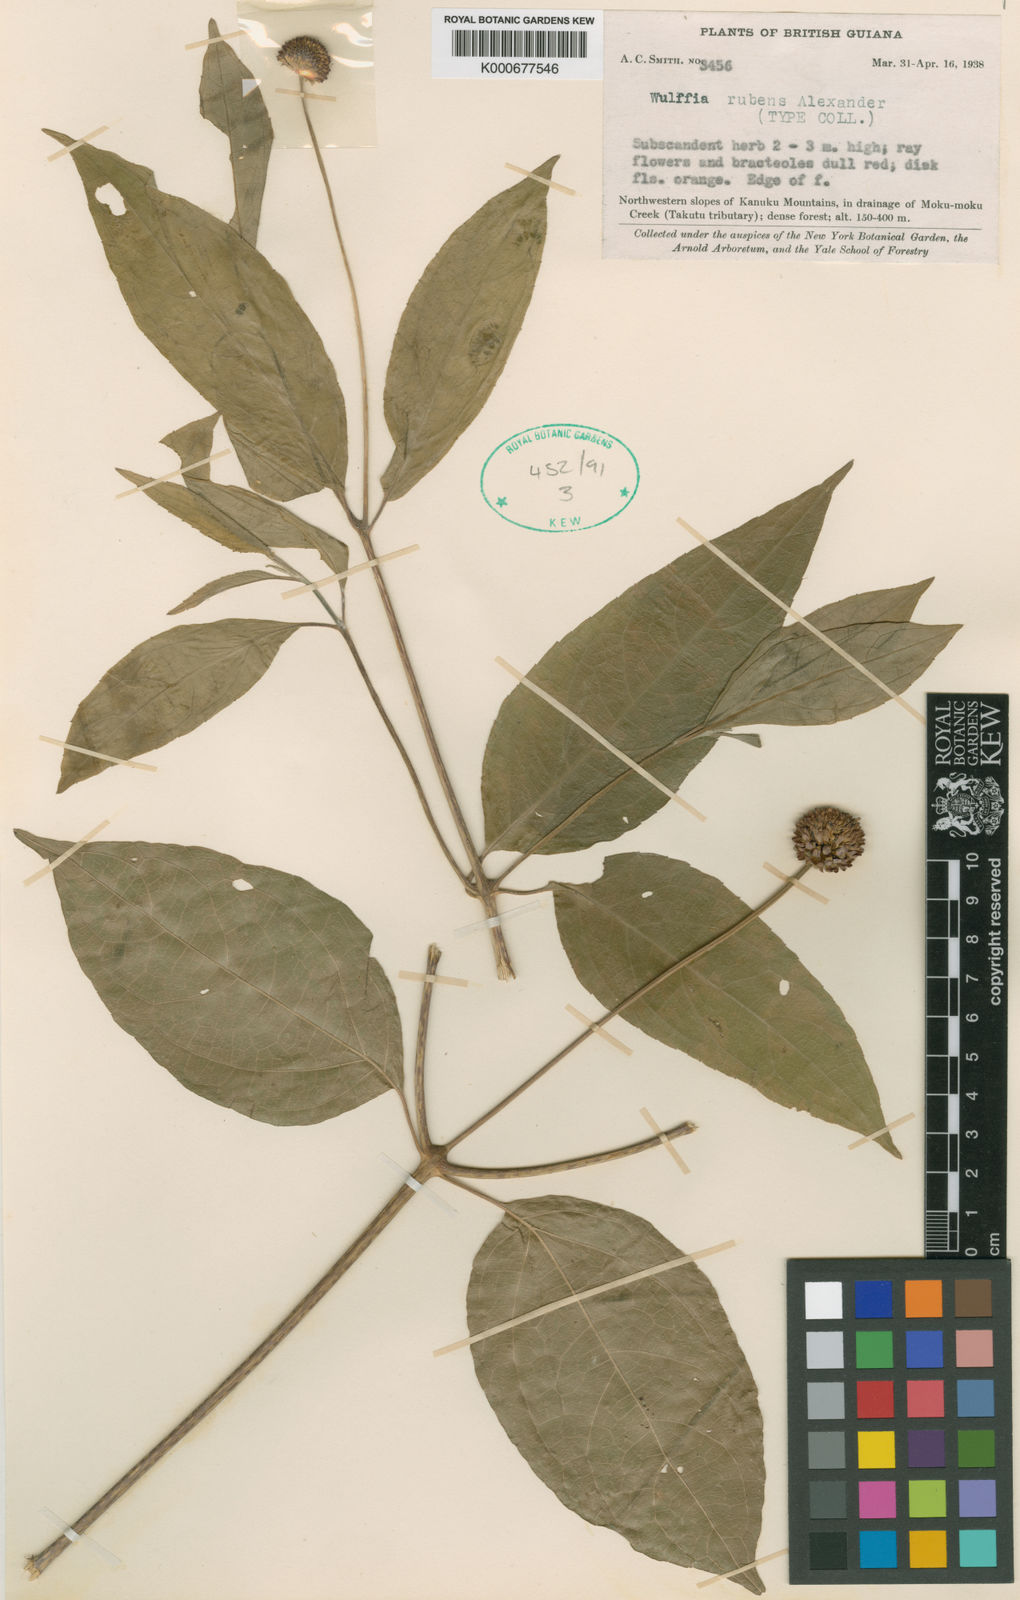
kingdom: Plantae
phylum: Tracheophyta
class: Magnoliopsida
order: Asterales
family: Asteraceae
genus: Tilesia
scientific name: Tilesia rubens
